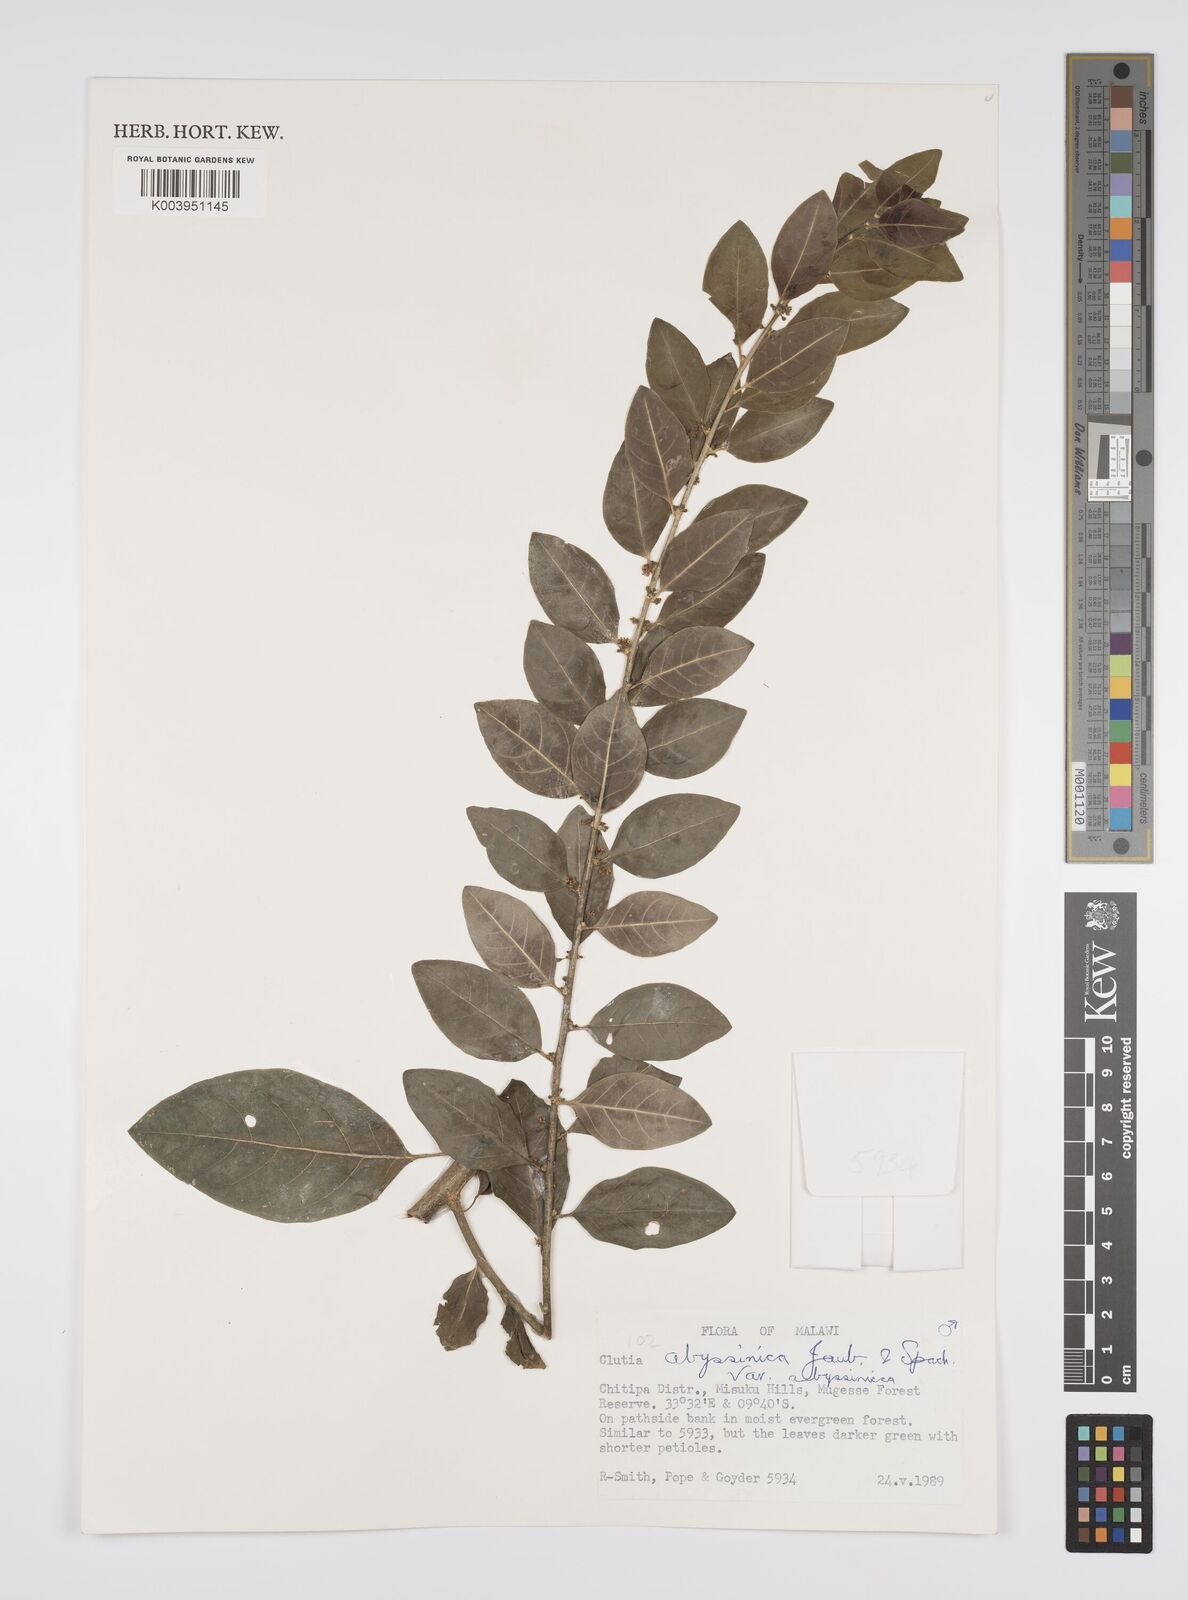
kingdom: Plantae
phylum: Tracheophyta
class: Magnoliopsida
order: Malpighiales
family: Peraceae
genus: Clutia
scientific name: Clutia abyssinica
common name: Large lightning bush
